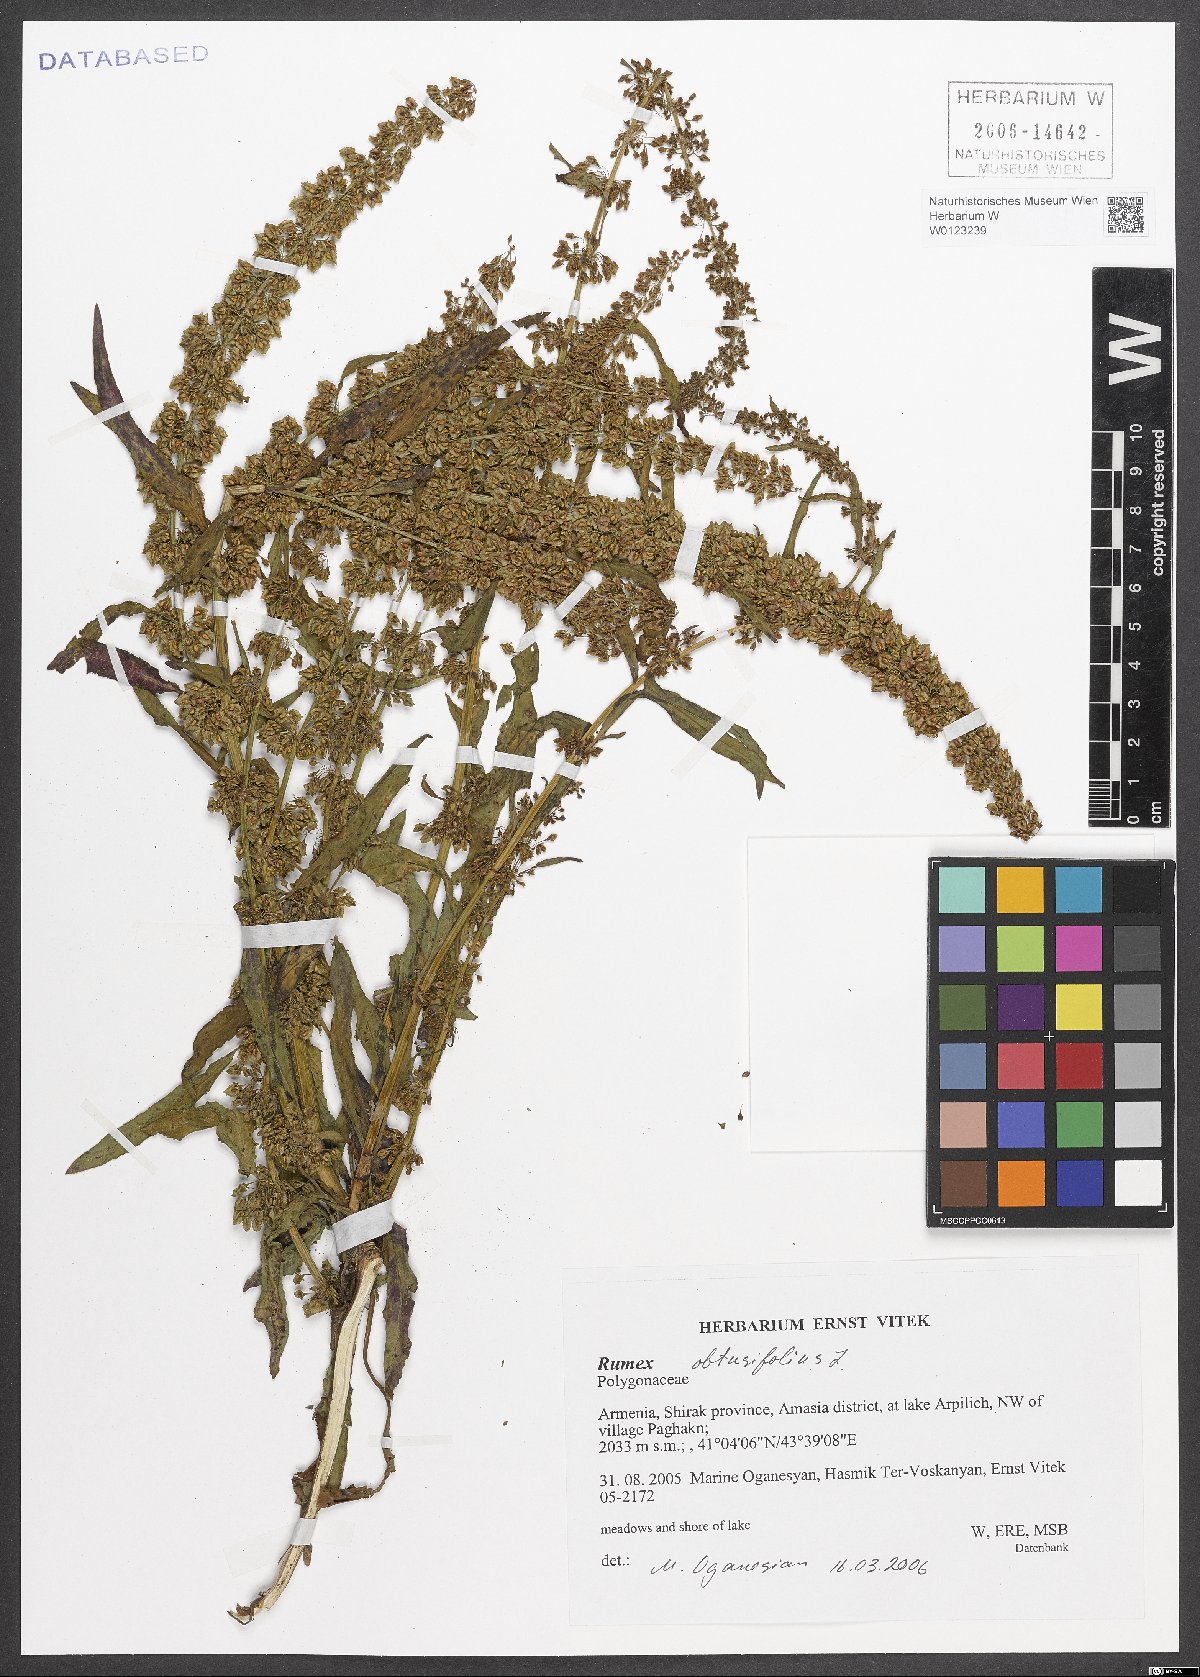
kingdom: Plantae
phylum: Tracheophyta
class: Magnoliopsida
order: Caryophyllales
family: Polygonaceae
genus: Rumex
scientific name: Rumex obtusifolius
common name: Bitter dock
